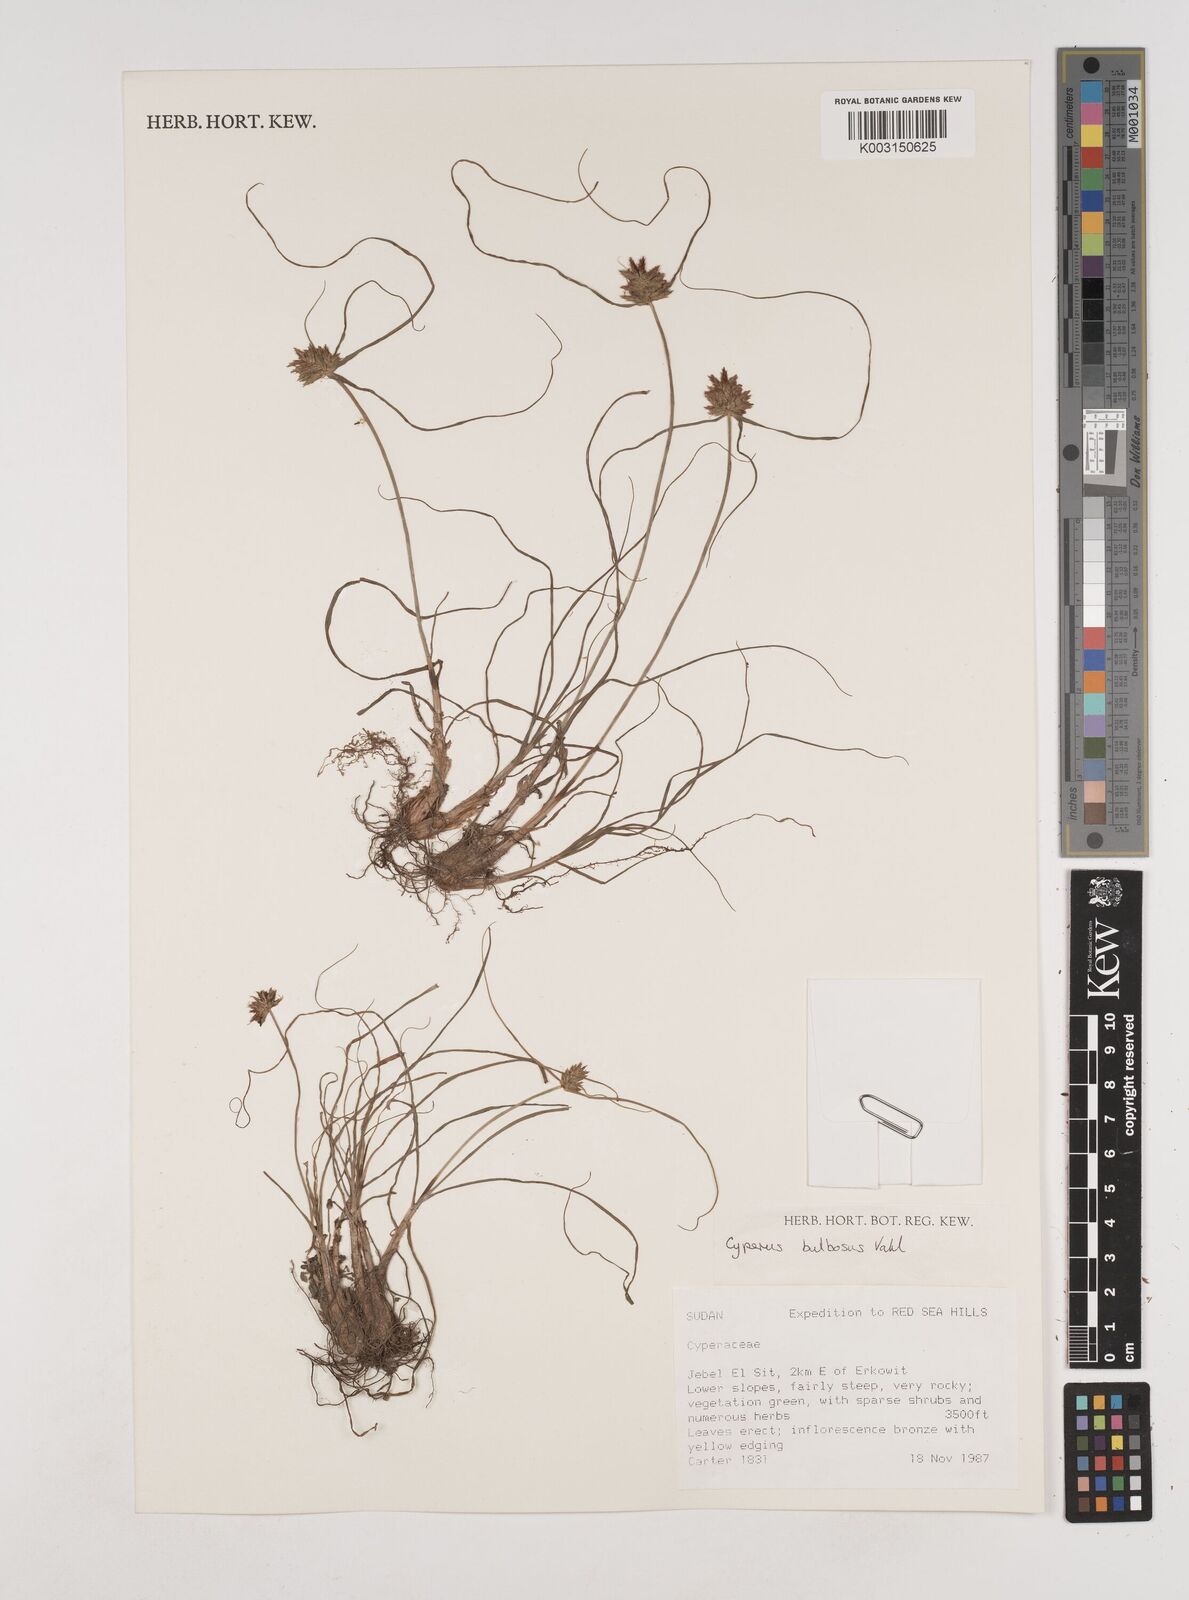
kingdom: Plantae
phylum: Tracheophyta
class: Liliopsida
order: Poales
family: Cyperaceae
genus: Cyperus
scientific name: Cyperus bulbosus
